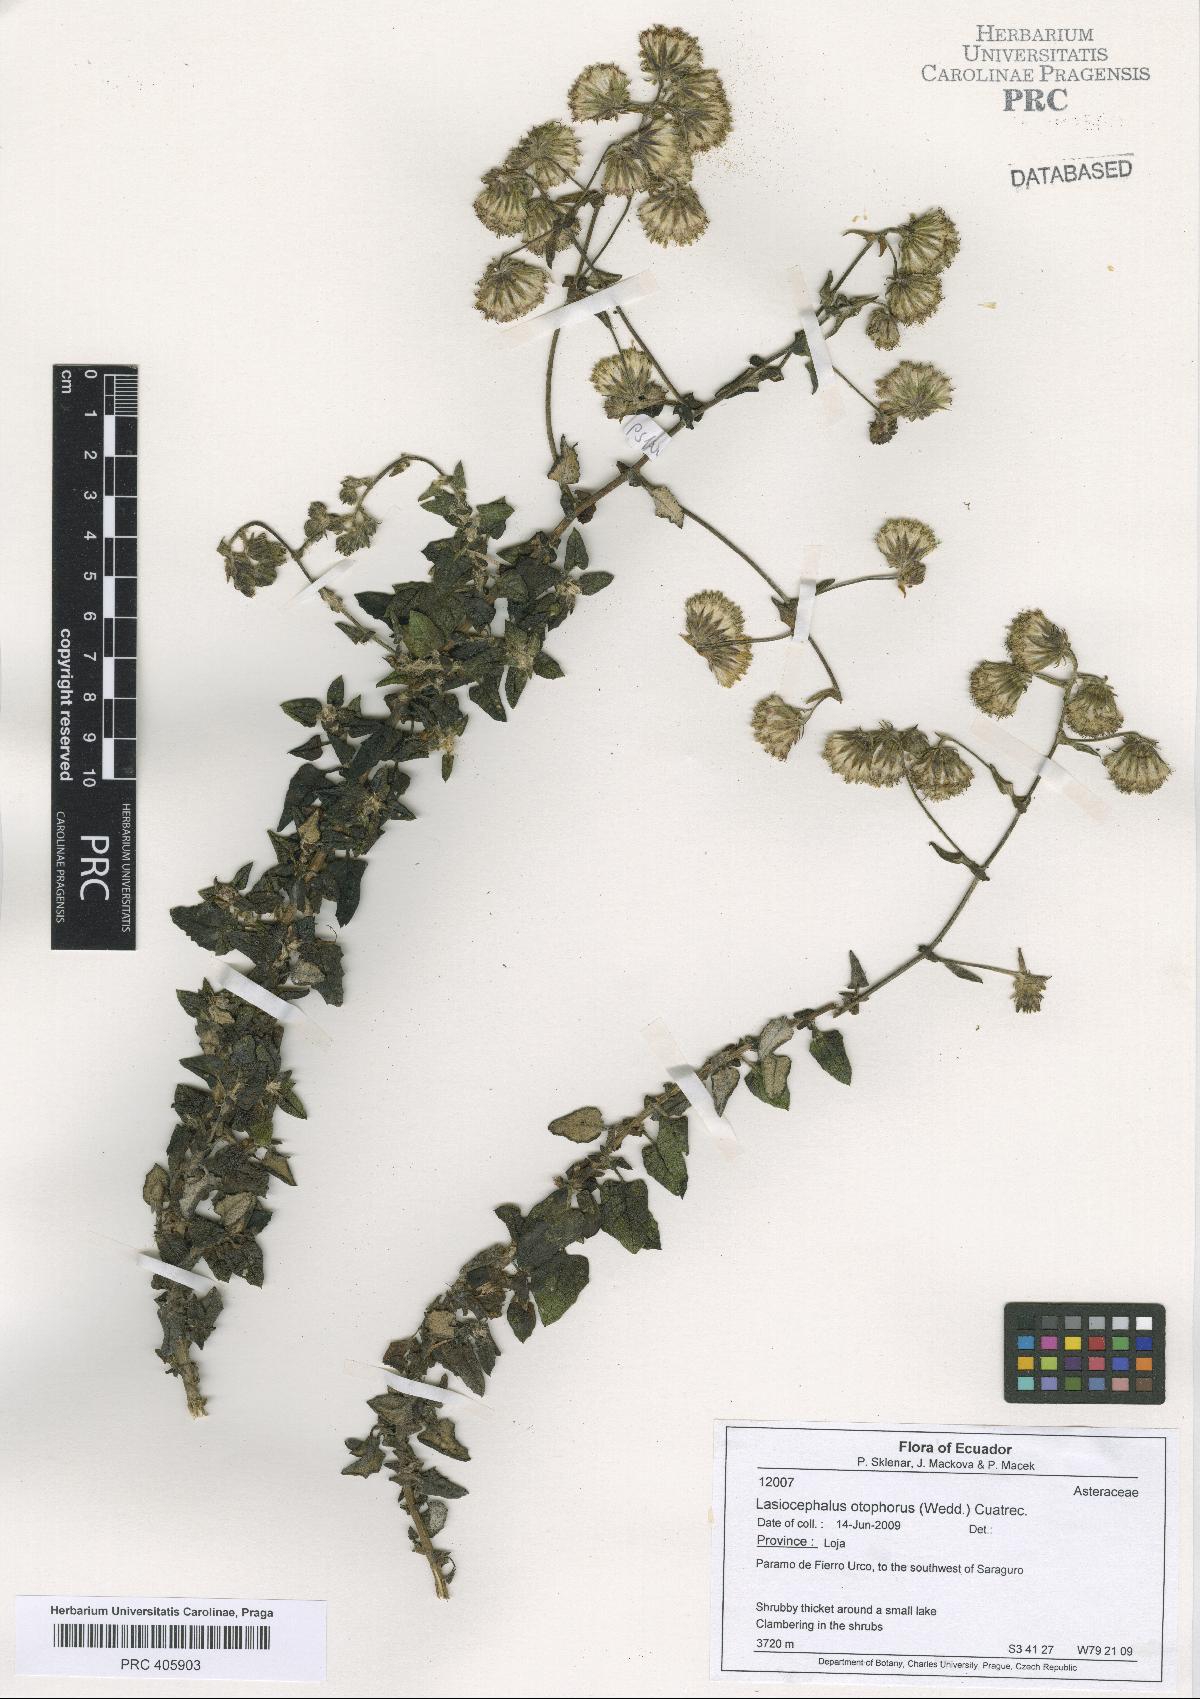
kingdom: Plantae
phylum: Tracheophyta
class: Magnoliopsida
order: Asterales
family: Asteraceae
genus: Aetheolaena
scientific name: Aetheolaena otophora
